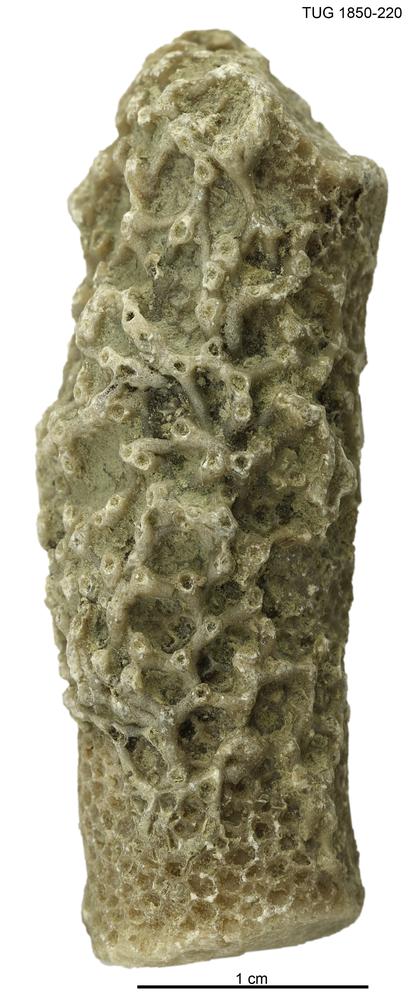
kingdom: Animalia
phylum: Cnidaria
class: Anthozoa
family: Auloporidae
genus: Aulopora
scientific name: Aulopora
